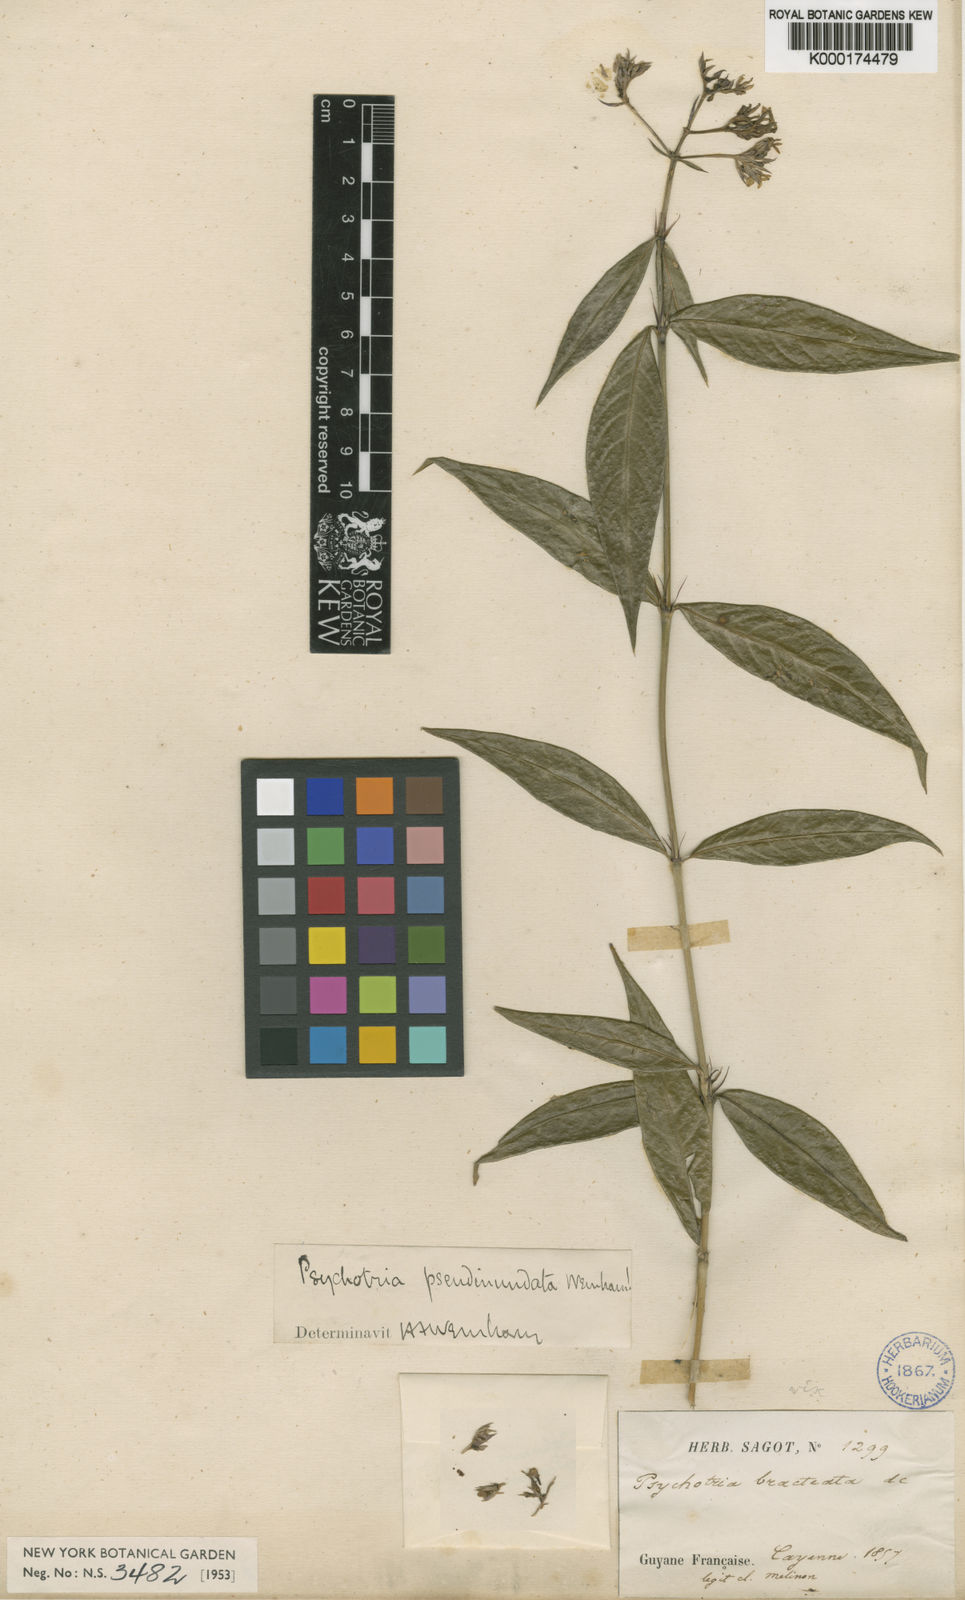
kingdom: Plantae
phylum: Tracheophyta
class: Magnoliopsida
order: Gentianales
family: Rubiaceae
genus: Palicourea
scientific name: Palicourea pseudinundata
